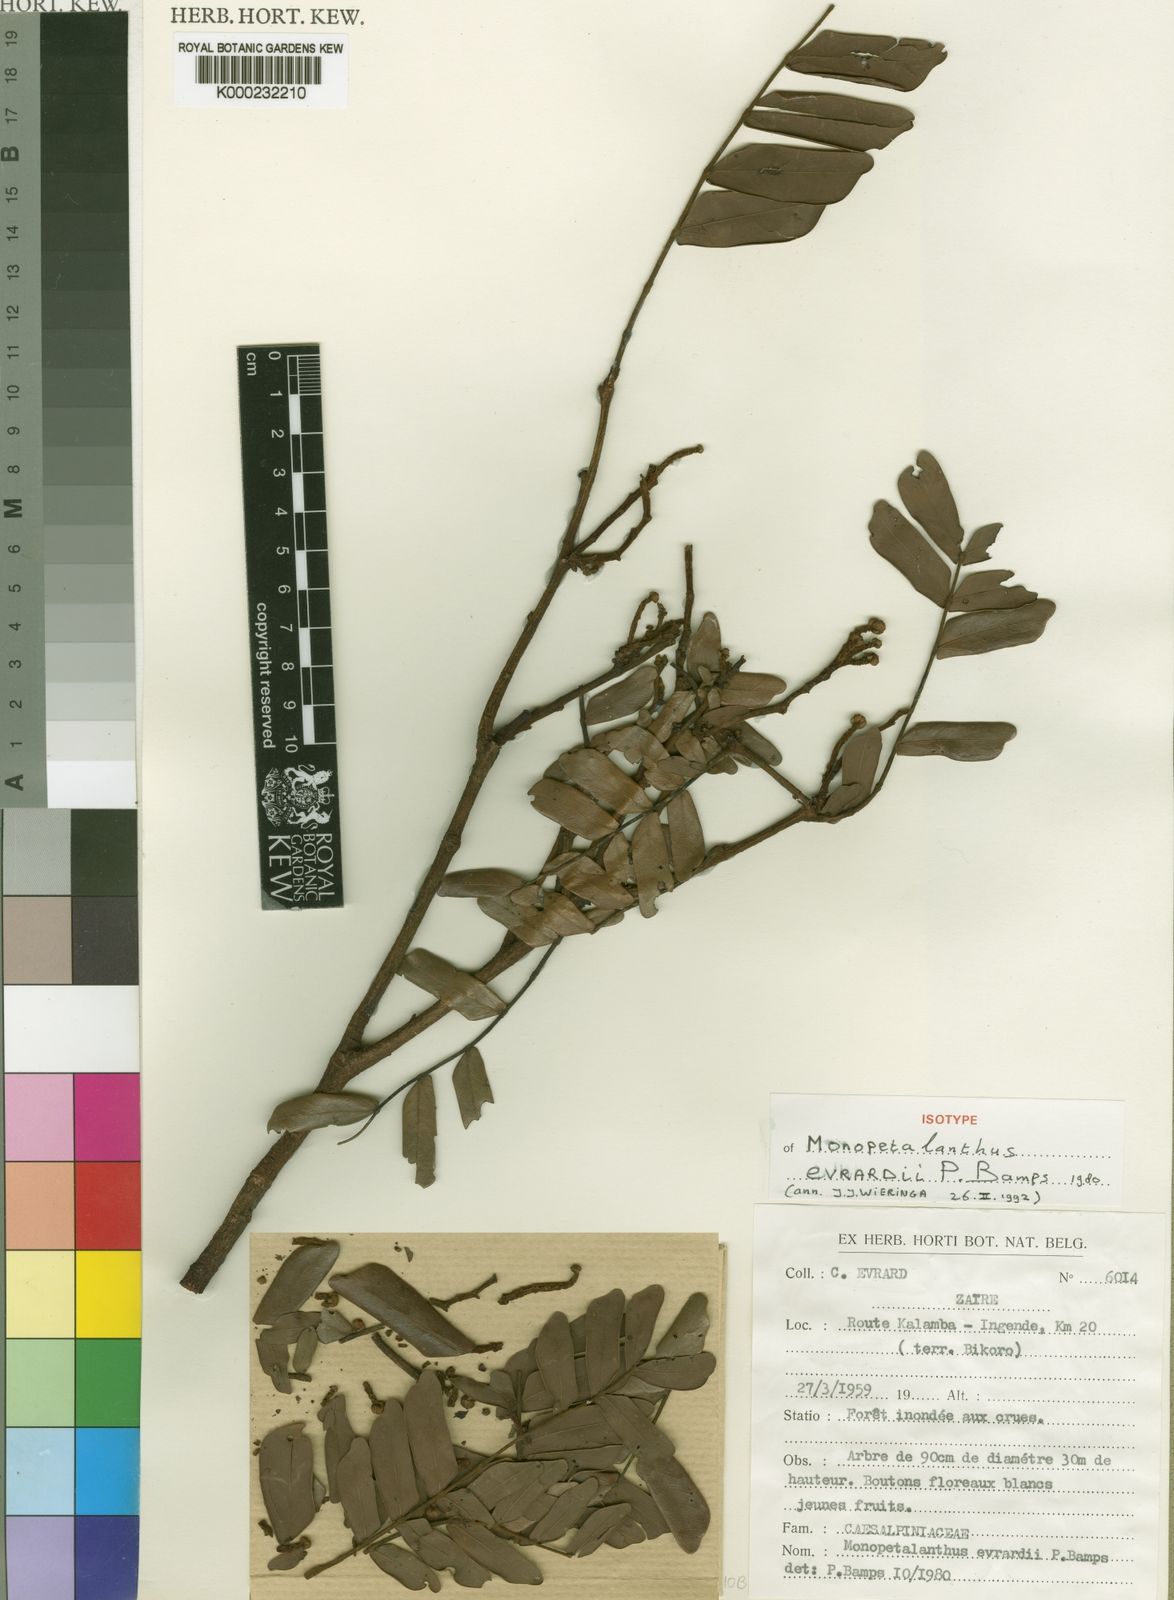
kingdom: Plantae
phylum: Tracheophyta
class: Magnoliopsida
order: Fabales
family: Fabaceae
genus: Bikinia
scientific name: Bikinia evrardii
